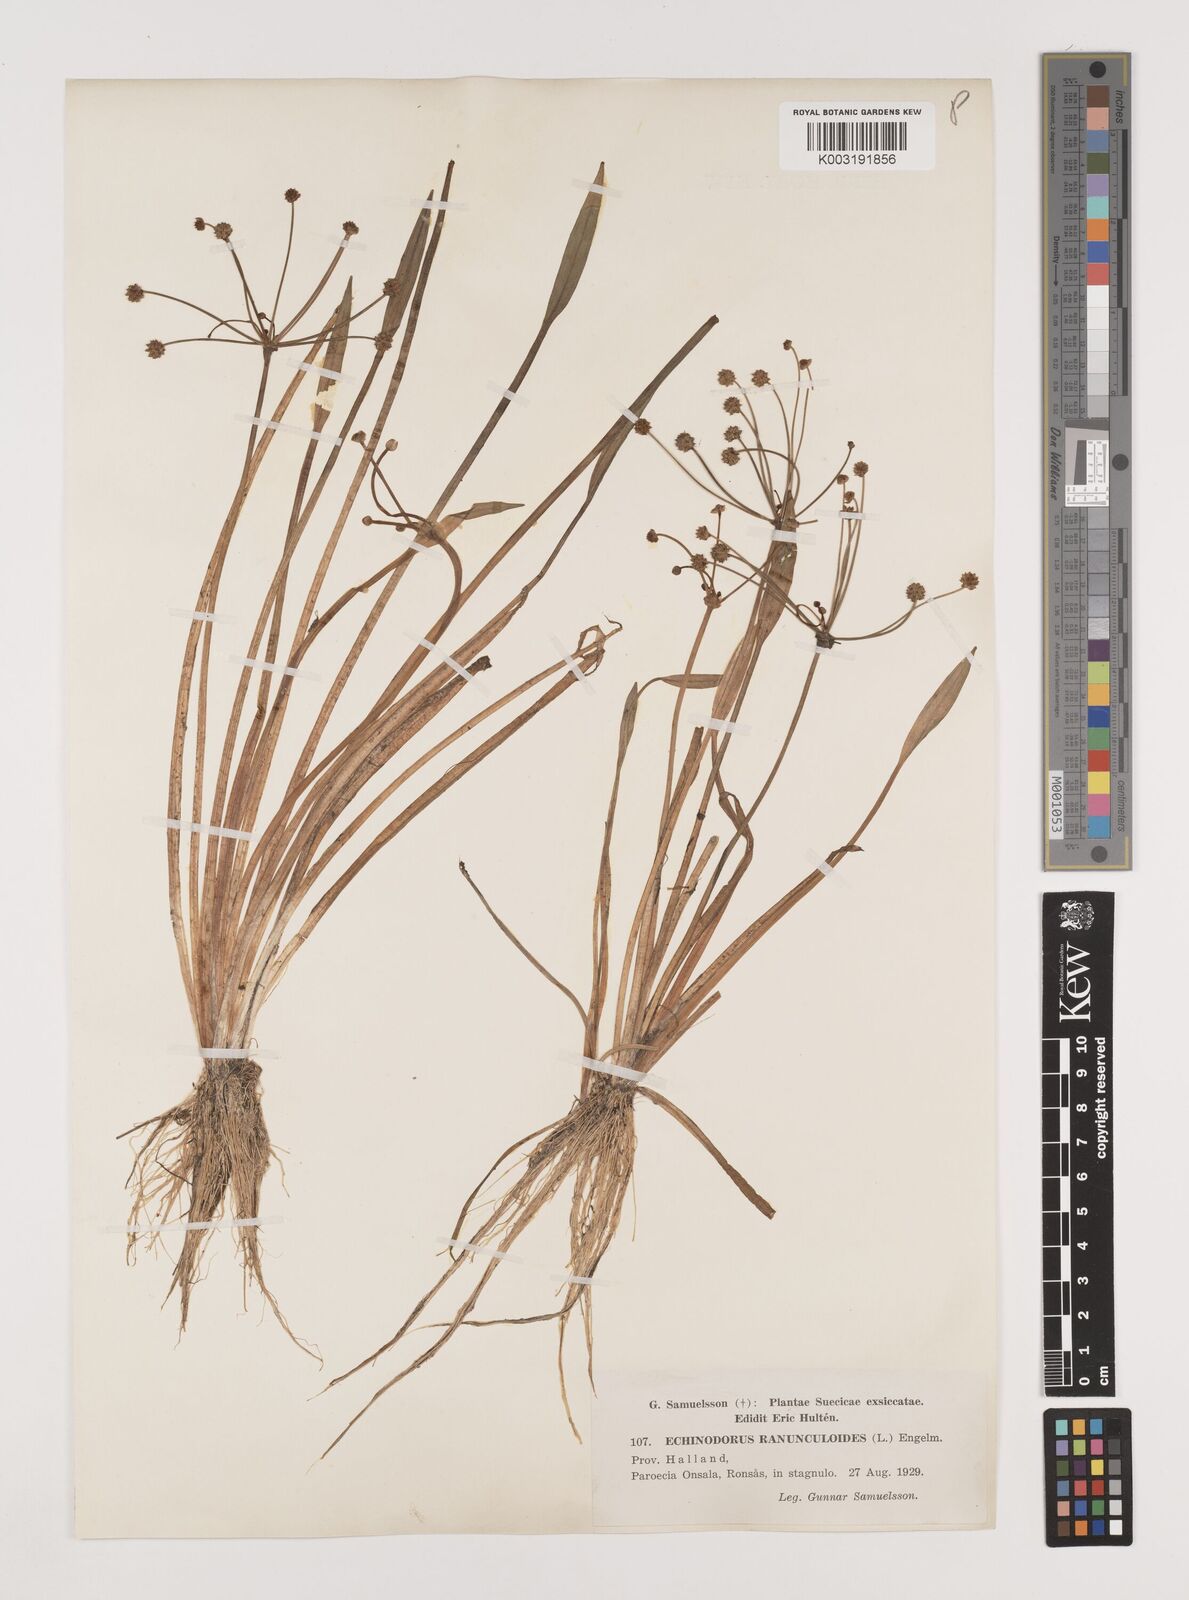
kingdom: Plantae
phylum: Tracheophyta
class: Liliopsida
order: Alismatales
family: Alismataceae
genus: Baldellia
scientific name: Baldellia ranunculoides
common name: Lesser water-plantain
